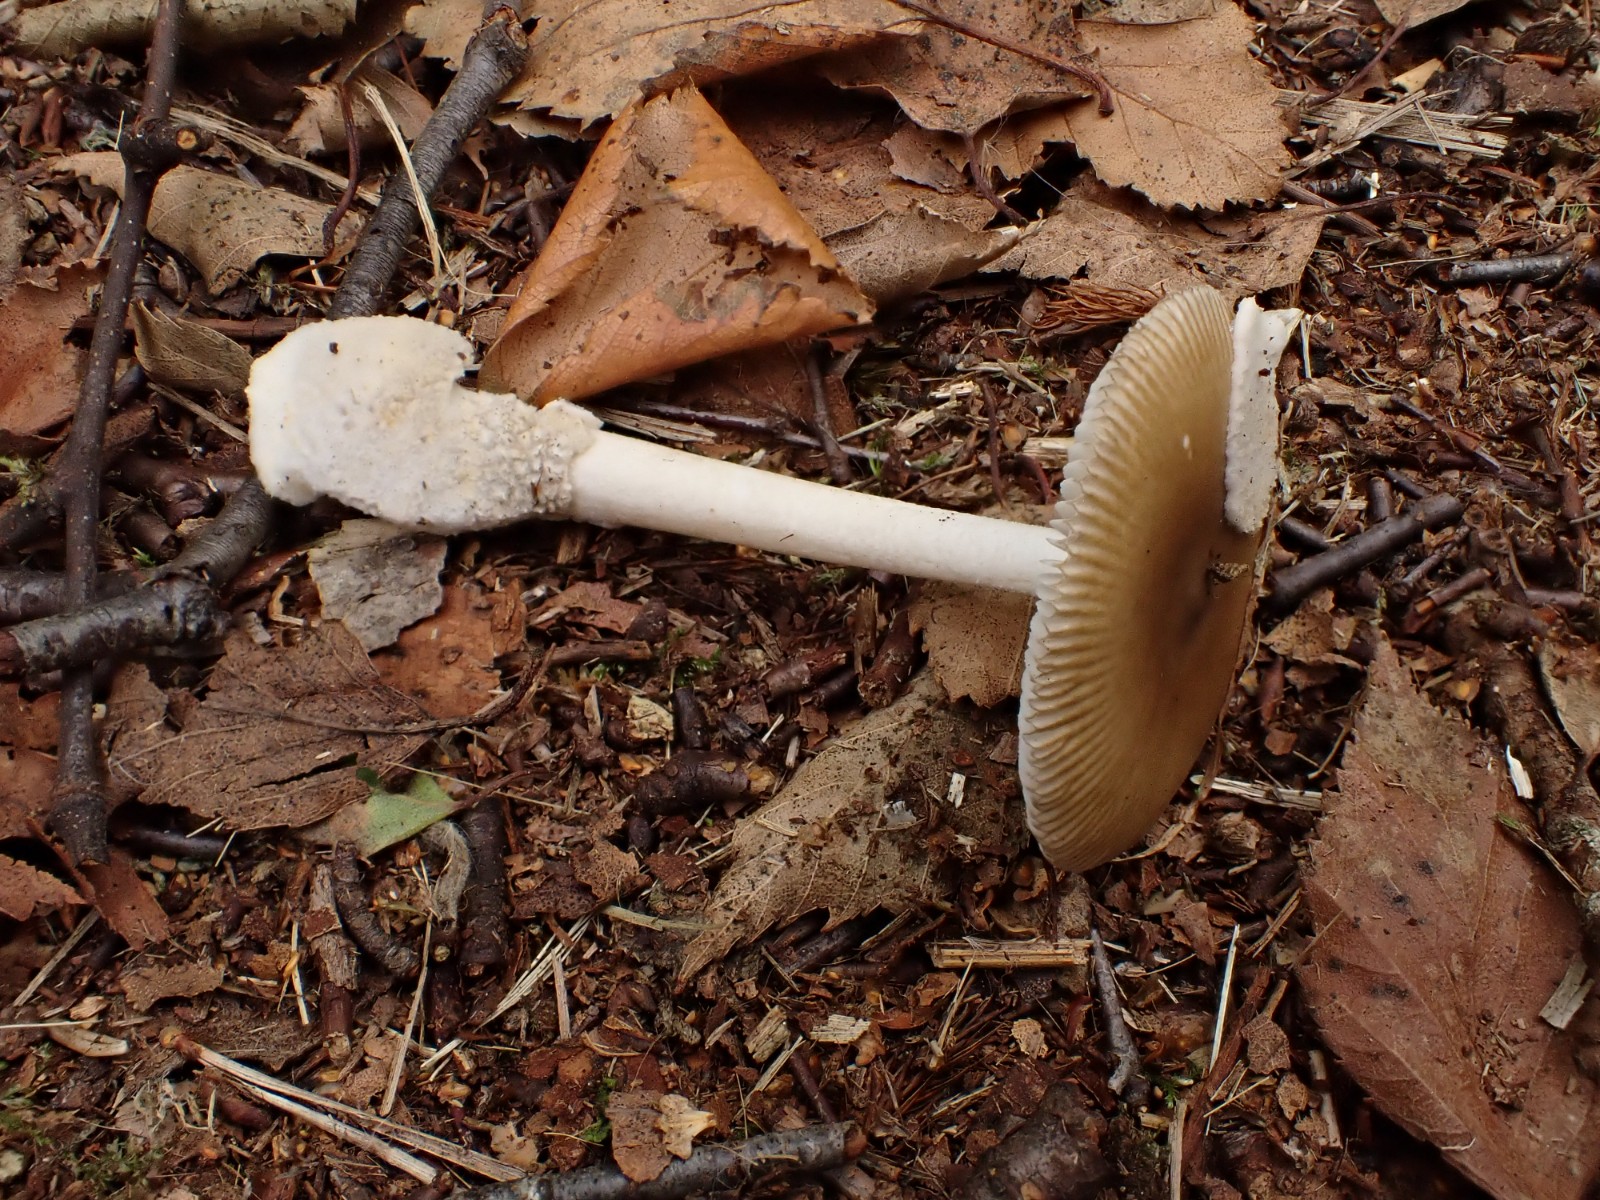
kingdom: Fungi
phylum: Basidiomycota
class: Agaricomycetes
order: Agaricales
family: Amanitaceae
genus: Amanita
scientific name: Amanita olivaceogrisea
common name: olivengrå kam-fluesvamp
